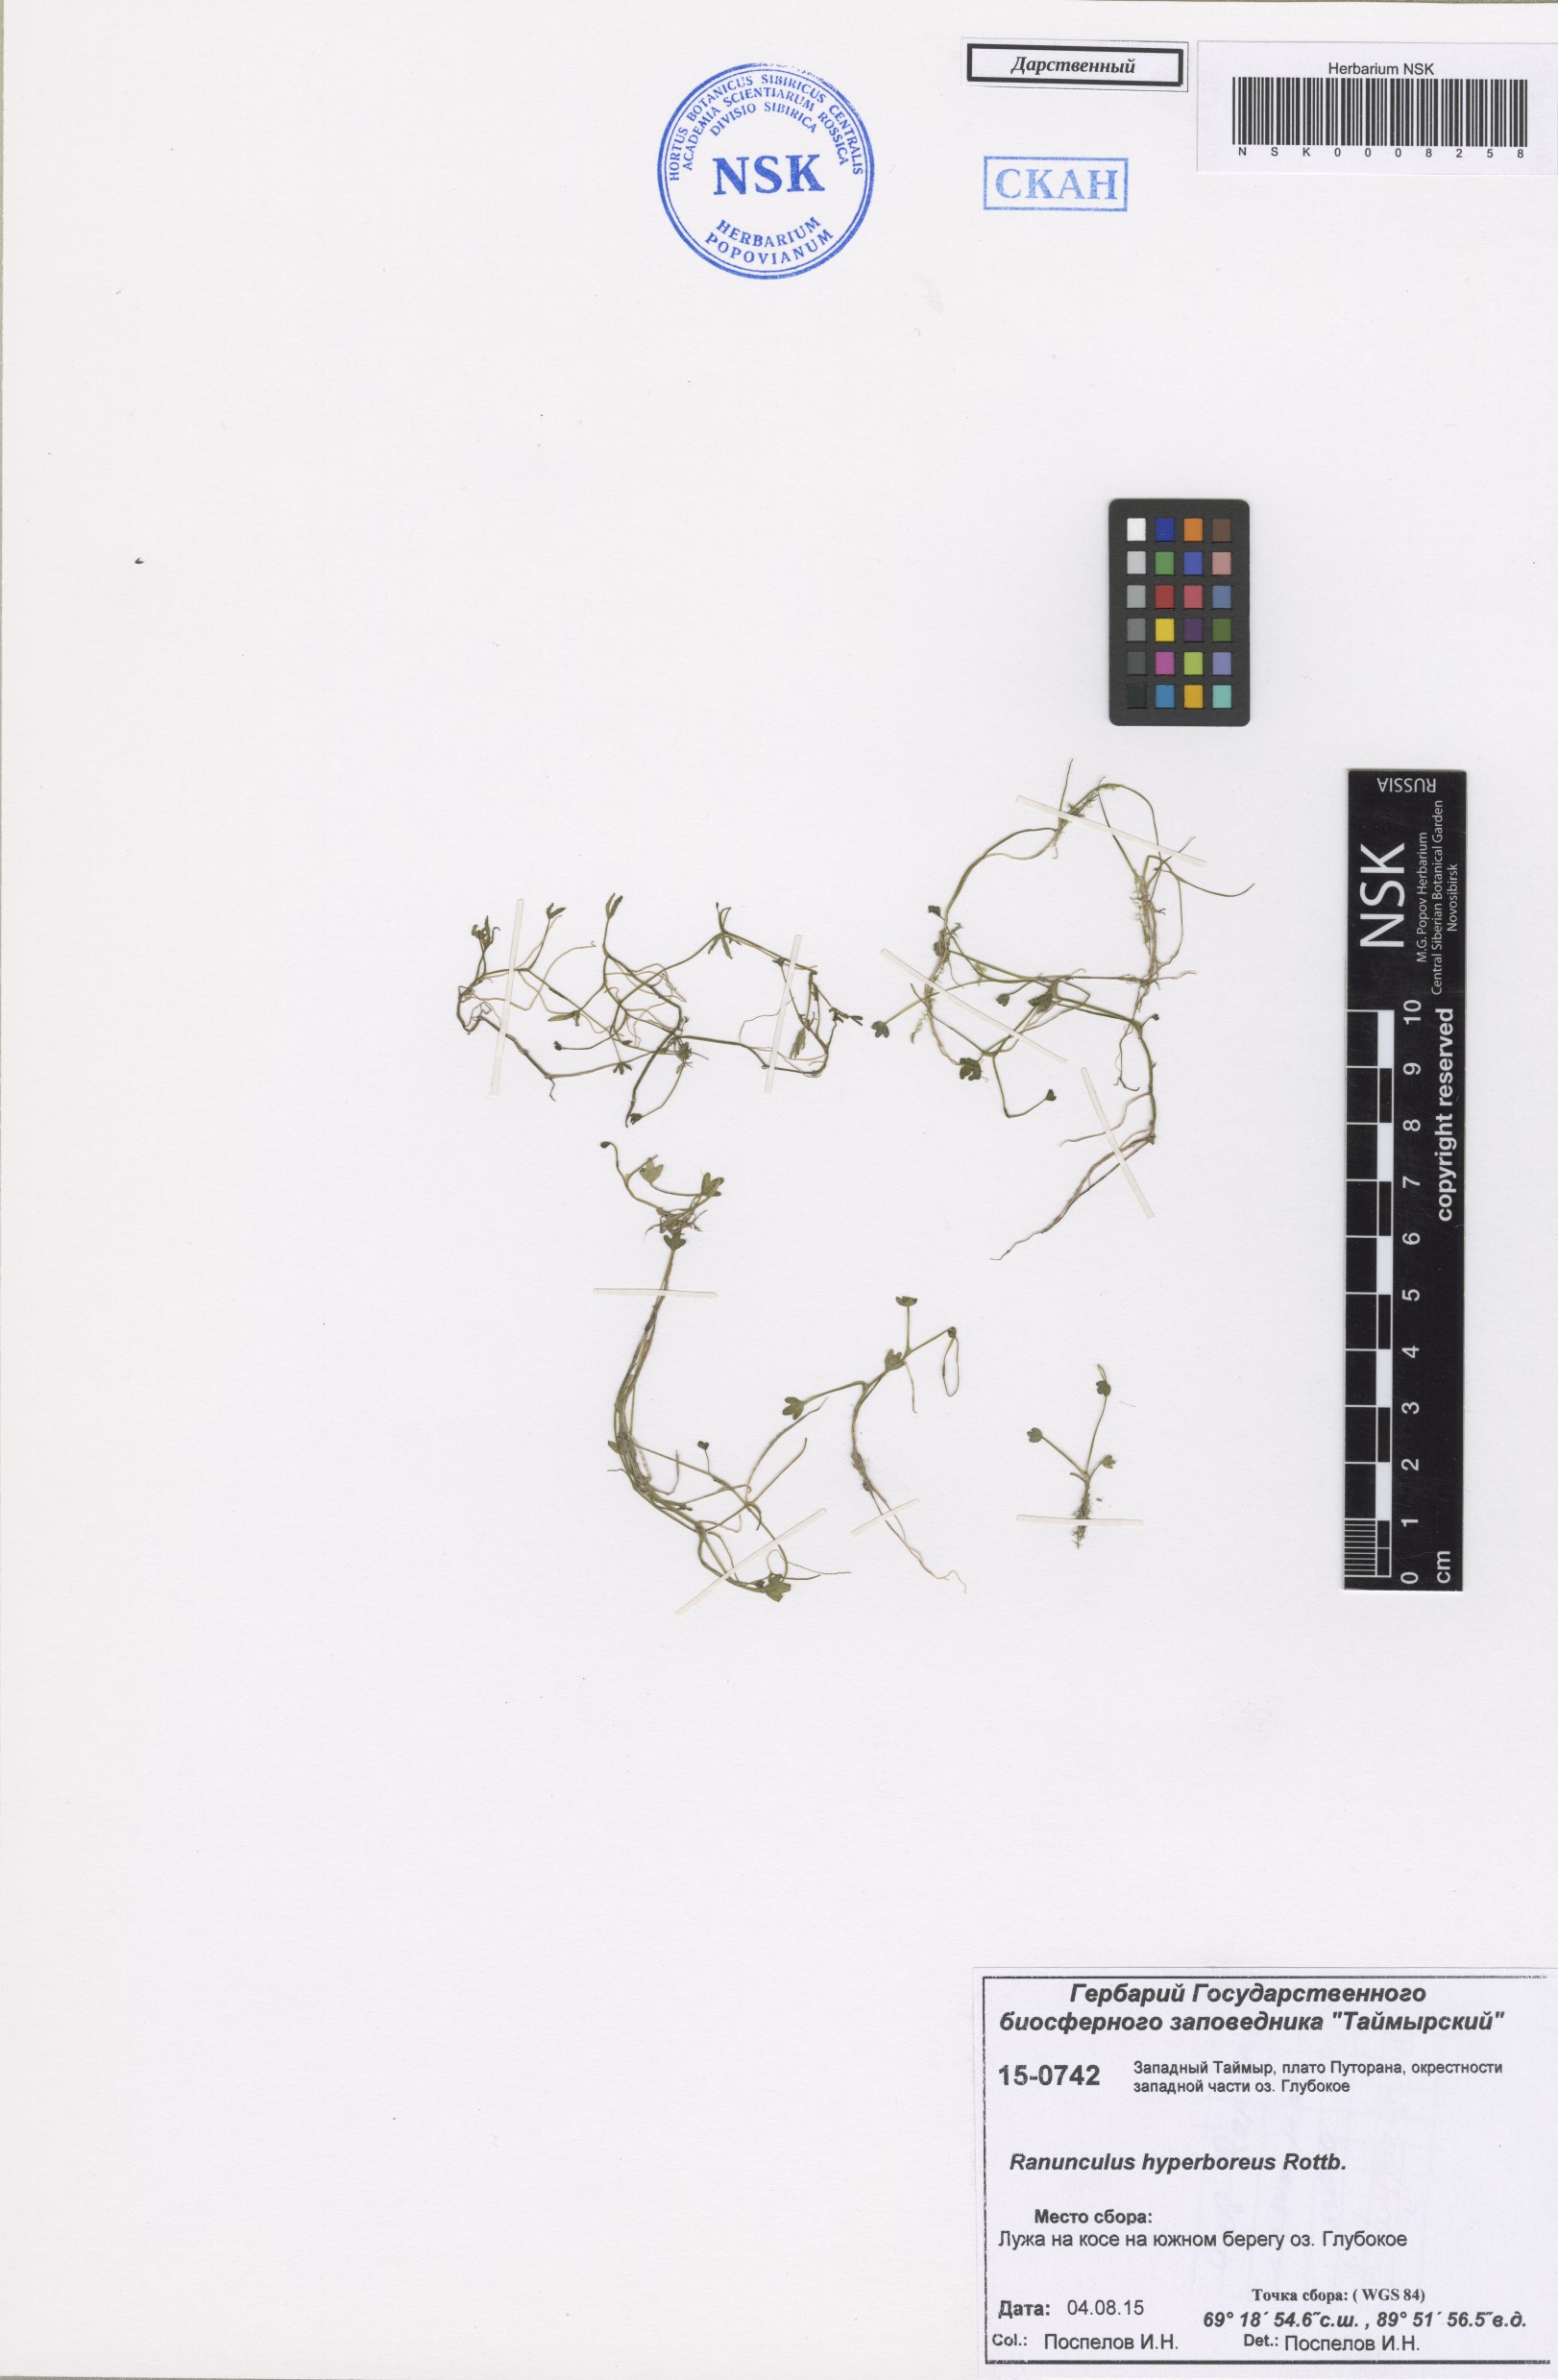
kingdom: Plantae
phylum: Tracheophyta
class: Magnoliopsida
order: Ranunculales
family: Ranunculaceae
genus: Ranunculus
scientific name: Ranunculus hyperboreus
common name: Arctic buttercup
